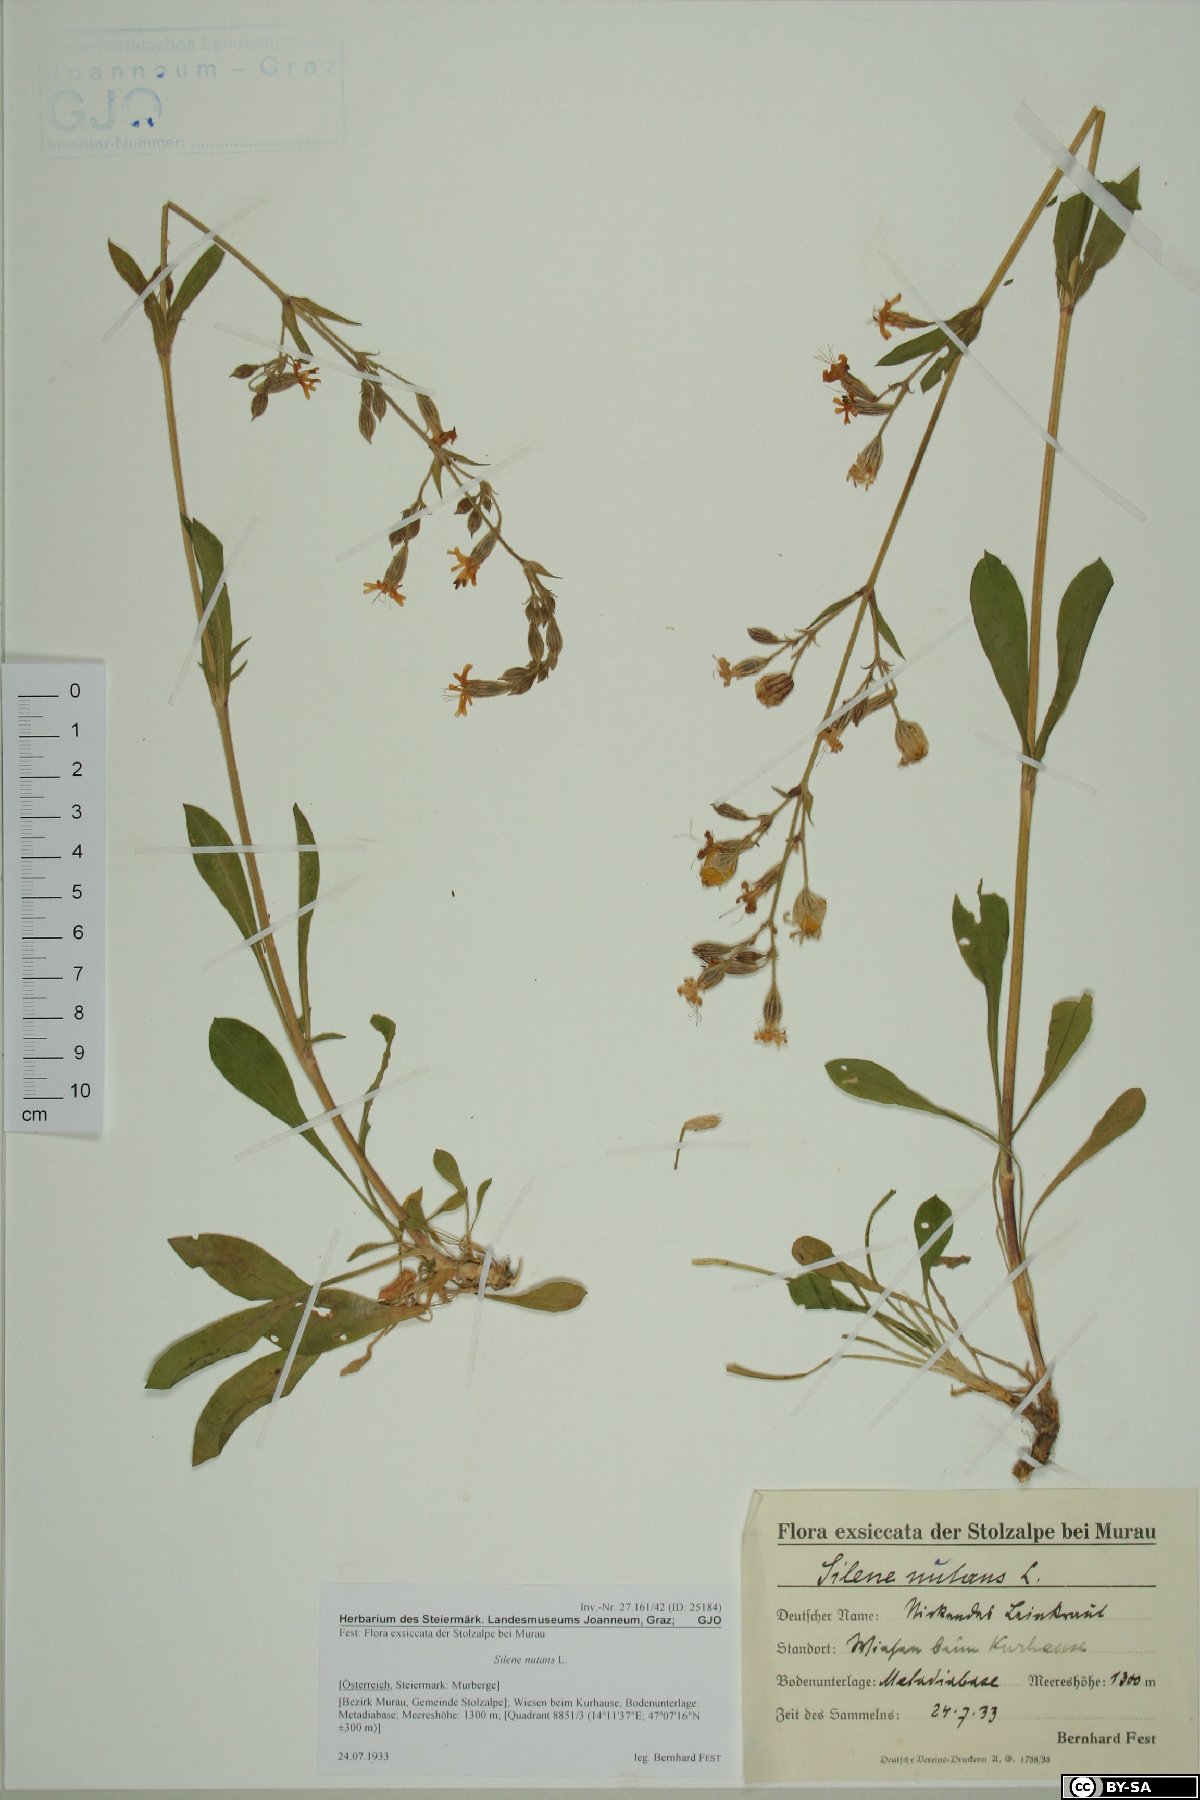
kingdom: Plantae
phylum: Tracheophyta
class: Magnoliopsida
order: Caryophyllales
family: Caryophyllaceae
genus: Silene
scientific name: Silene nutans
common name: Nottingham catchfly
